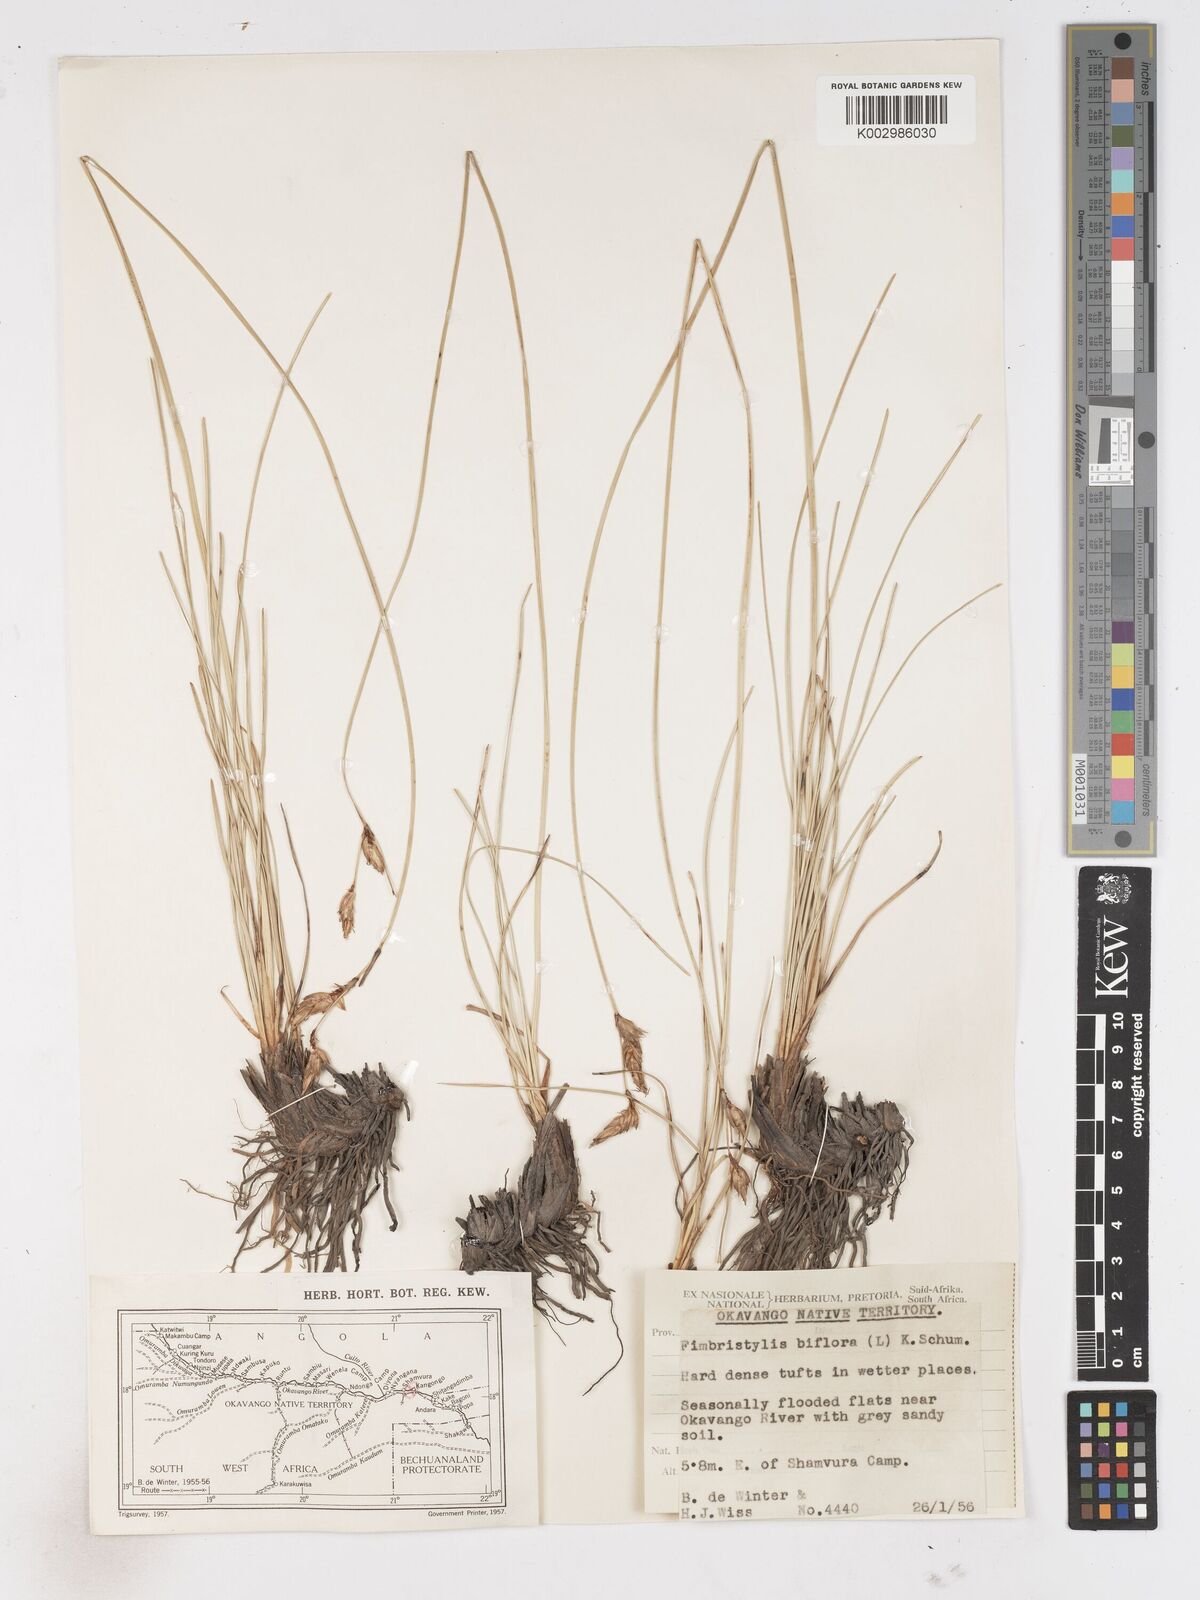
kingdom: Plantae
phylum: Tracheophyta
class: Liliopsida
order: Poales
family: Cyperaceae
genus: Abildgaardia
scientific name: Abildgaardia triflora
